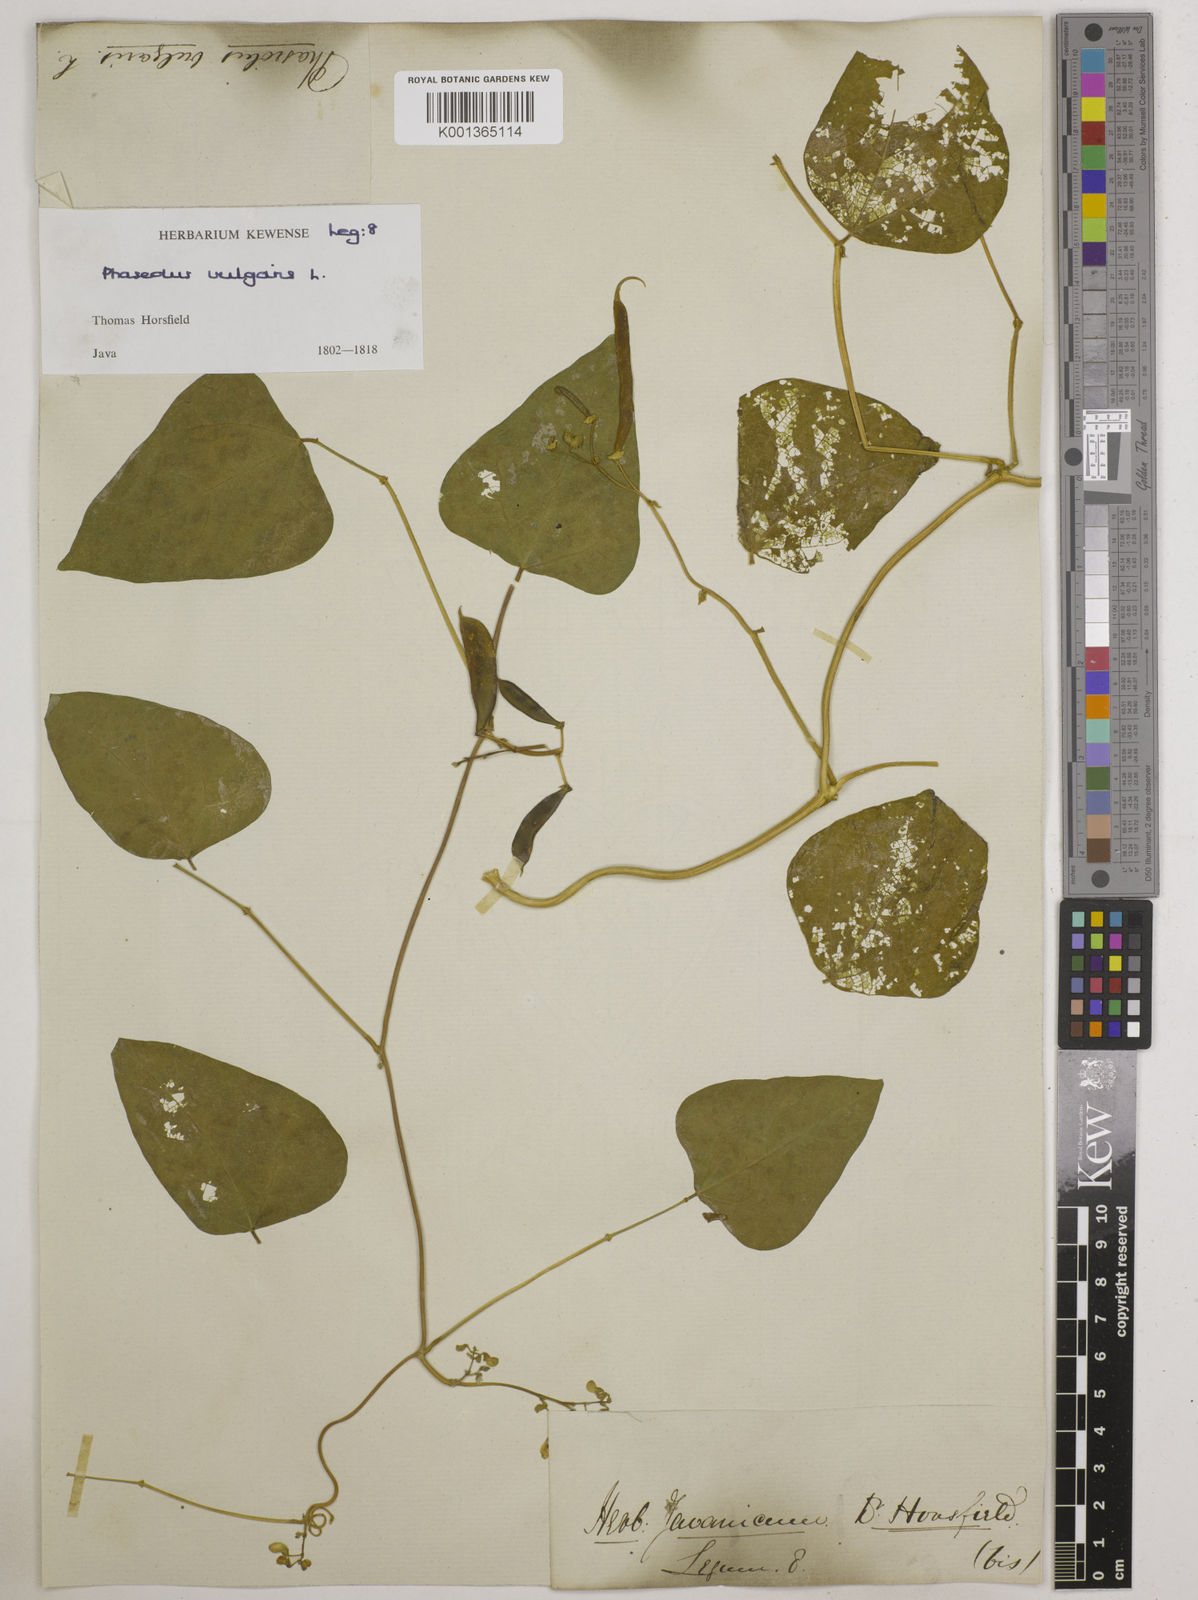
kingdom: Plantae
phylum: Tracheophyta
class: Magnoliopsida
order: Fabales
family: Fabaceae
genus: Phaseolus
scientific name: Phaseolus vulgaris
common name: Bean
